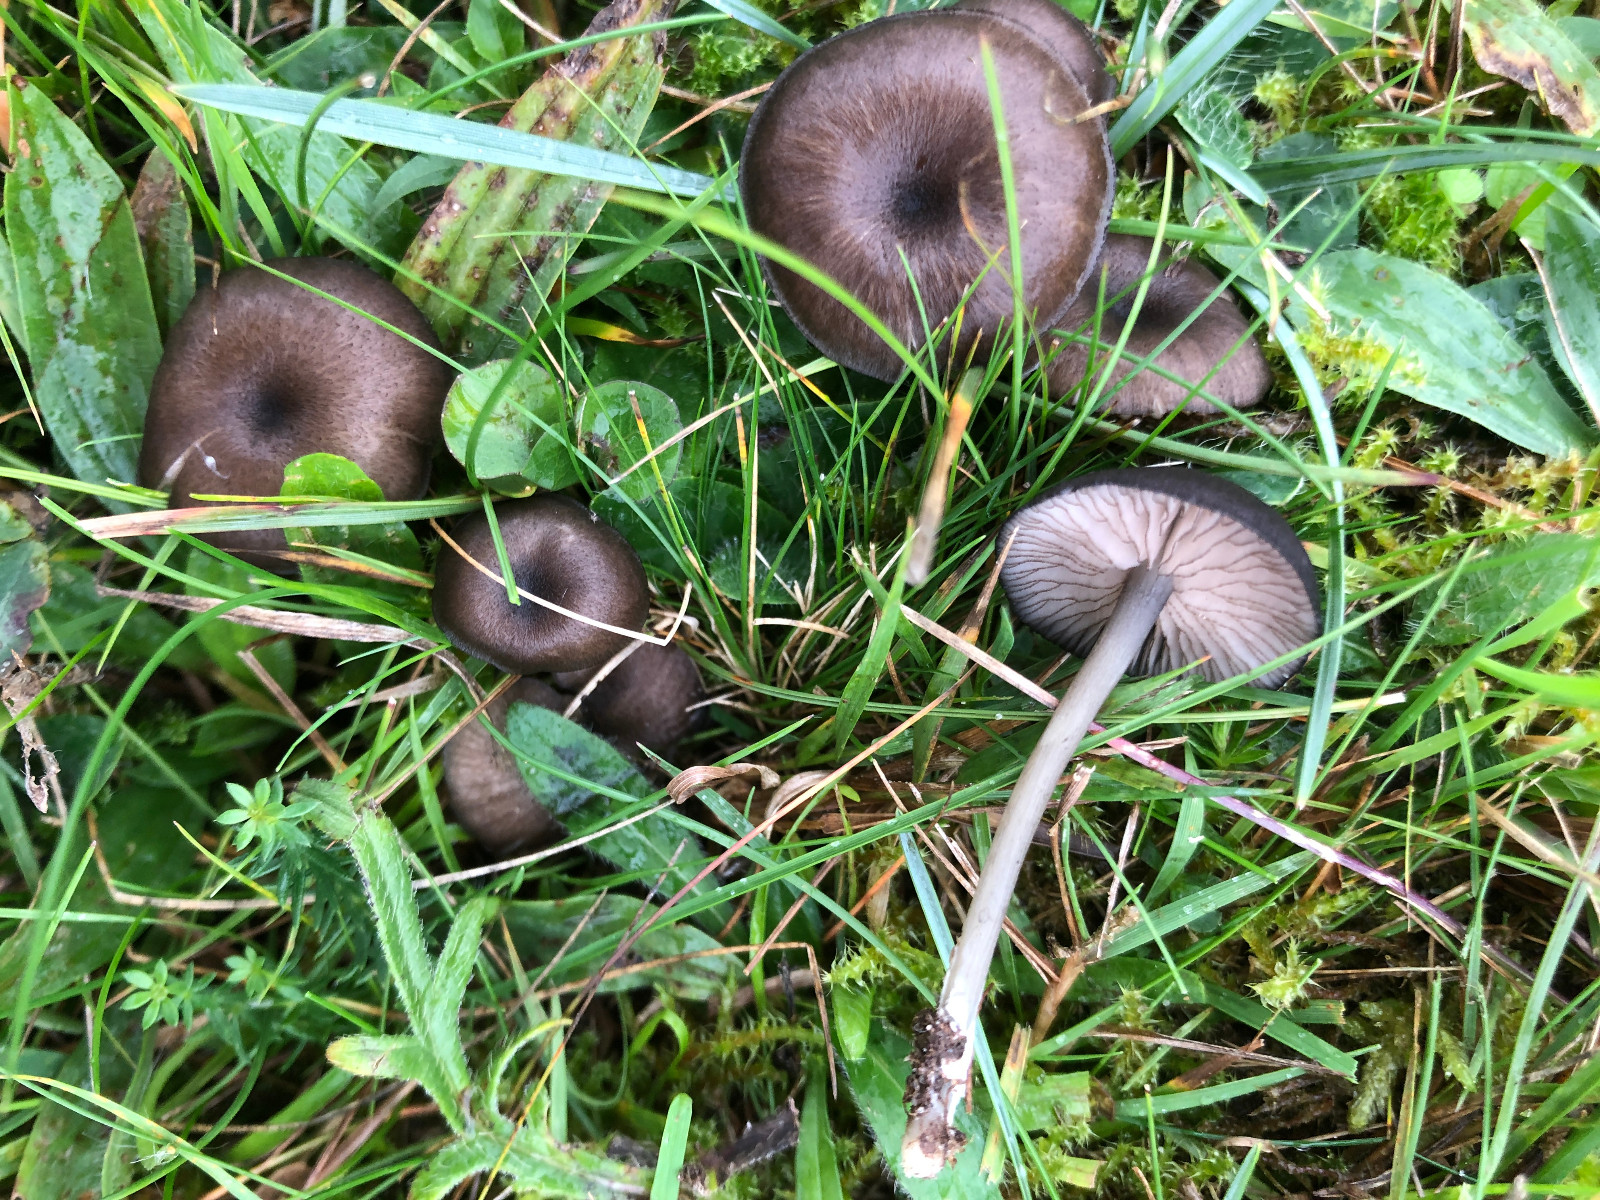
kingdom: Fungi
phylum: Basidiomycota
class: Agaricomycetes
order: Agaricales
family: Entolomataceae
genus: Entoloma
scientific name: Entoloma serrulatum
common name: savbladet rødblad
